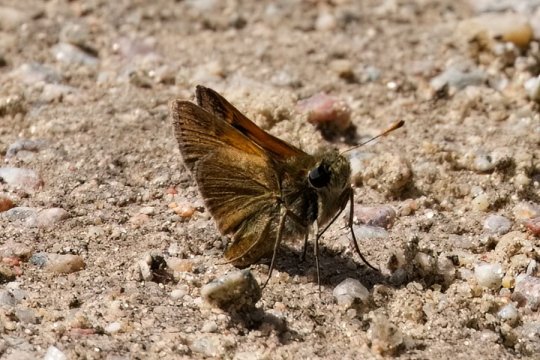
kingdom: Animalia
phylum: Arthropoda
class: Insecta
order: Lepidoptera
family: Hesperiidae
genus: Polites
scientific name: Polites themistocles
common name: Tawny-edged Skipper
